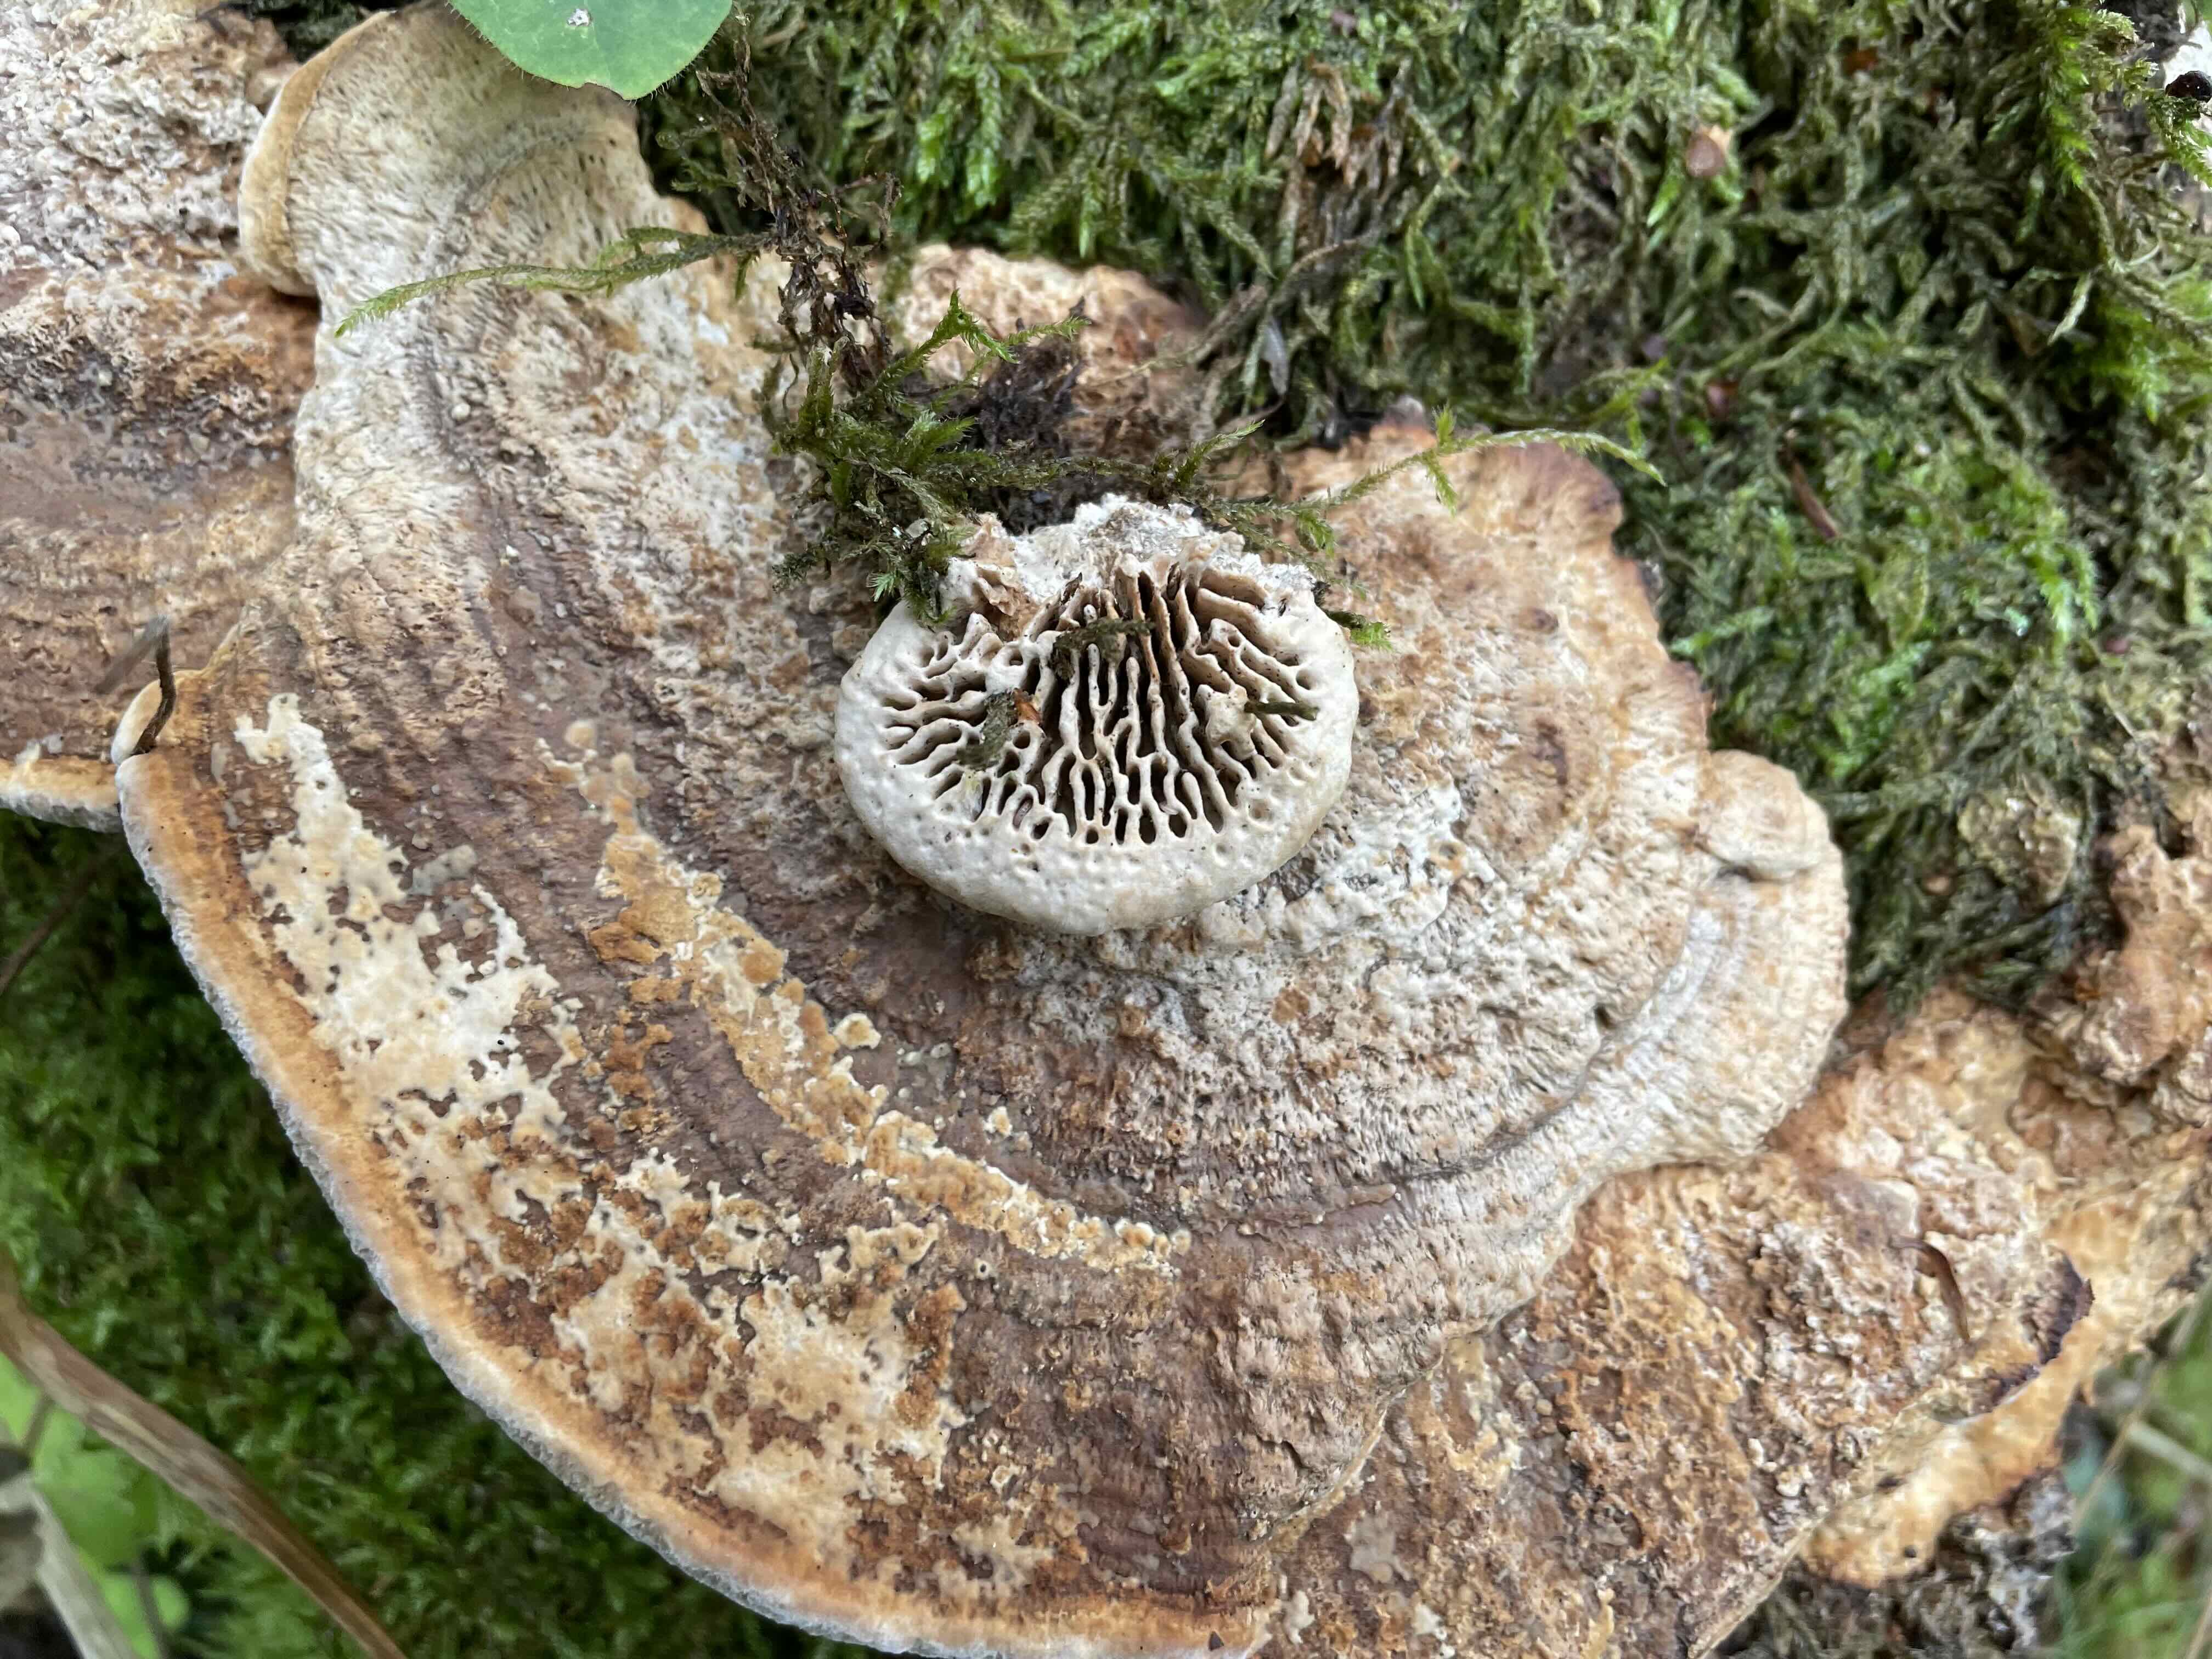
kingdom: Fungi
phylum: Basidiomycota
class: Agaricomycetes
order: Polyporales
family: Fomitopsidaceae
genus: Daedalea
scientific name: Daedalea quercina
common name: ege-labyrintsvamp
